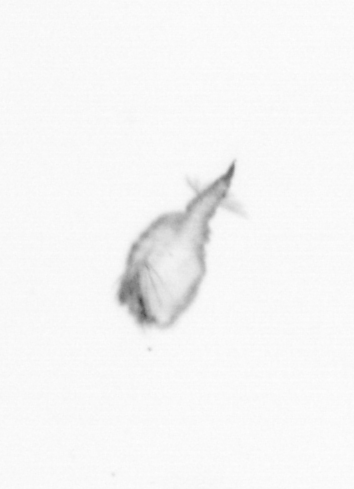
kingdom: Animalia
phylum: Arthropoda
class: Copepoda
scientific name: Copepoda
